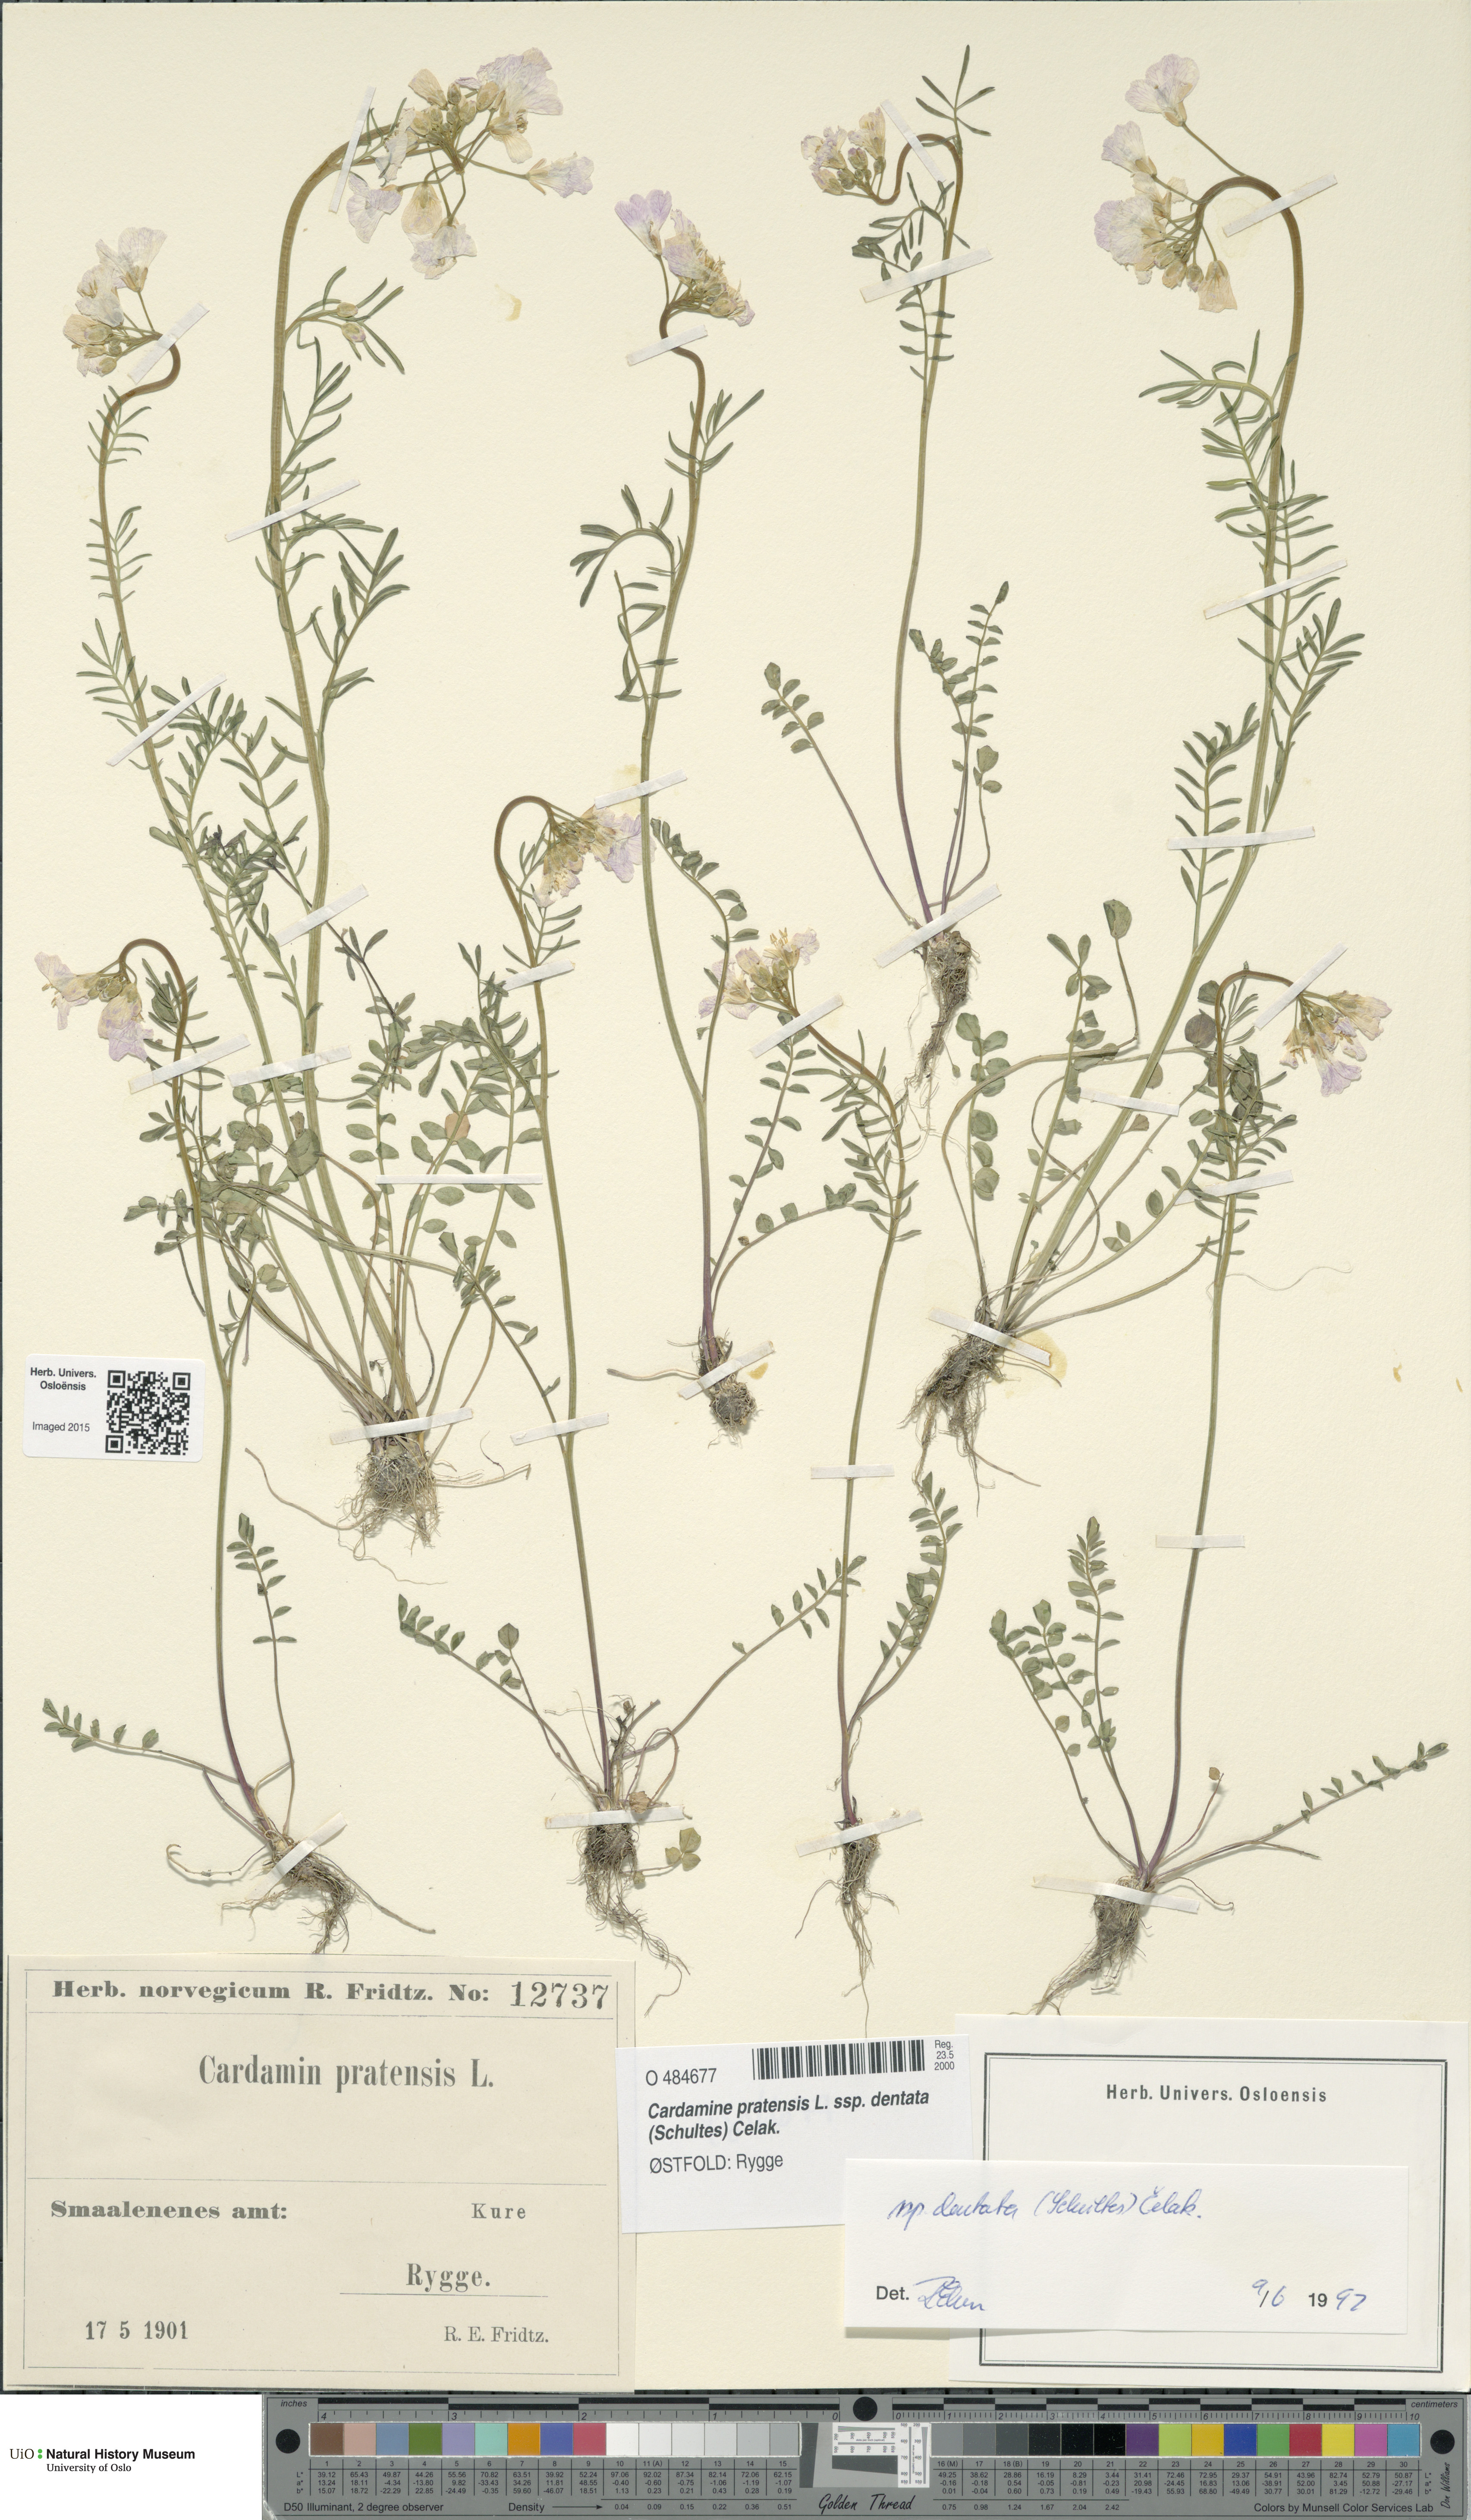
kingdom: Plantae
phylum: Tracheophyta
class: Magnoliopsida
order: Brassicales
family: Brassicaceae
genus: Cardamine
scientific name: Cardamine dentata
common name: Toothed bittercress
